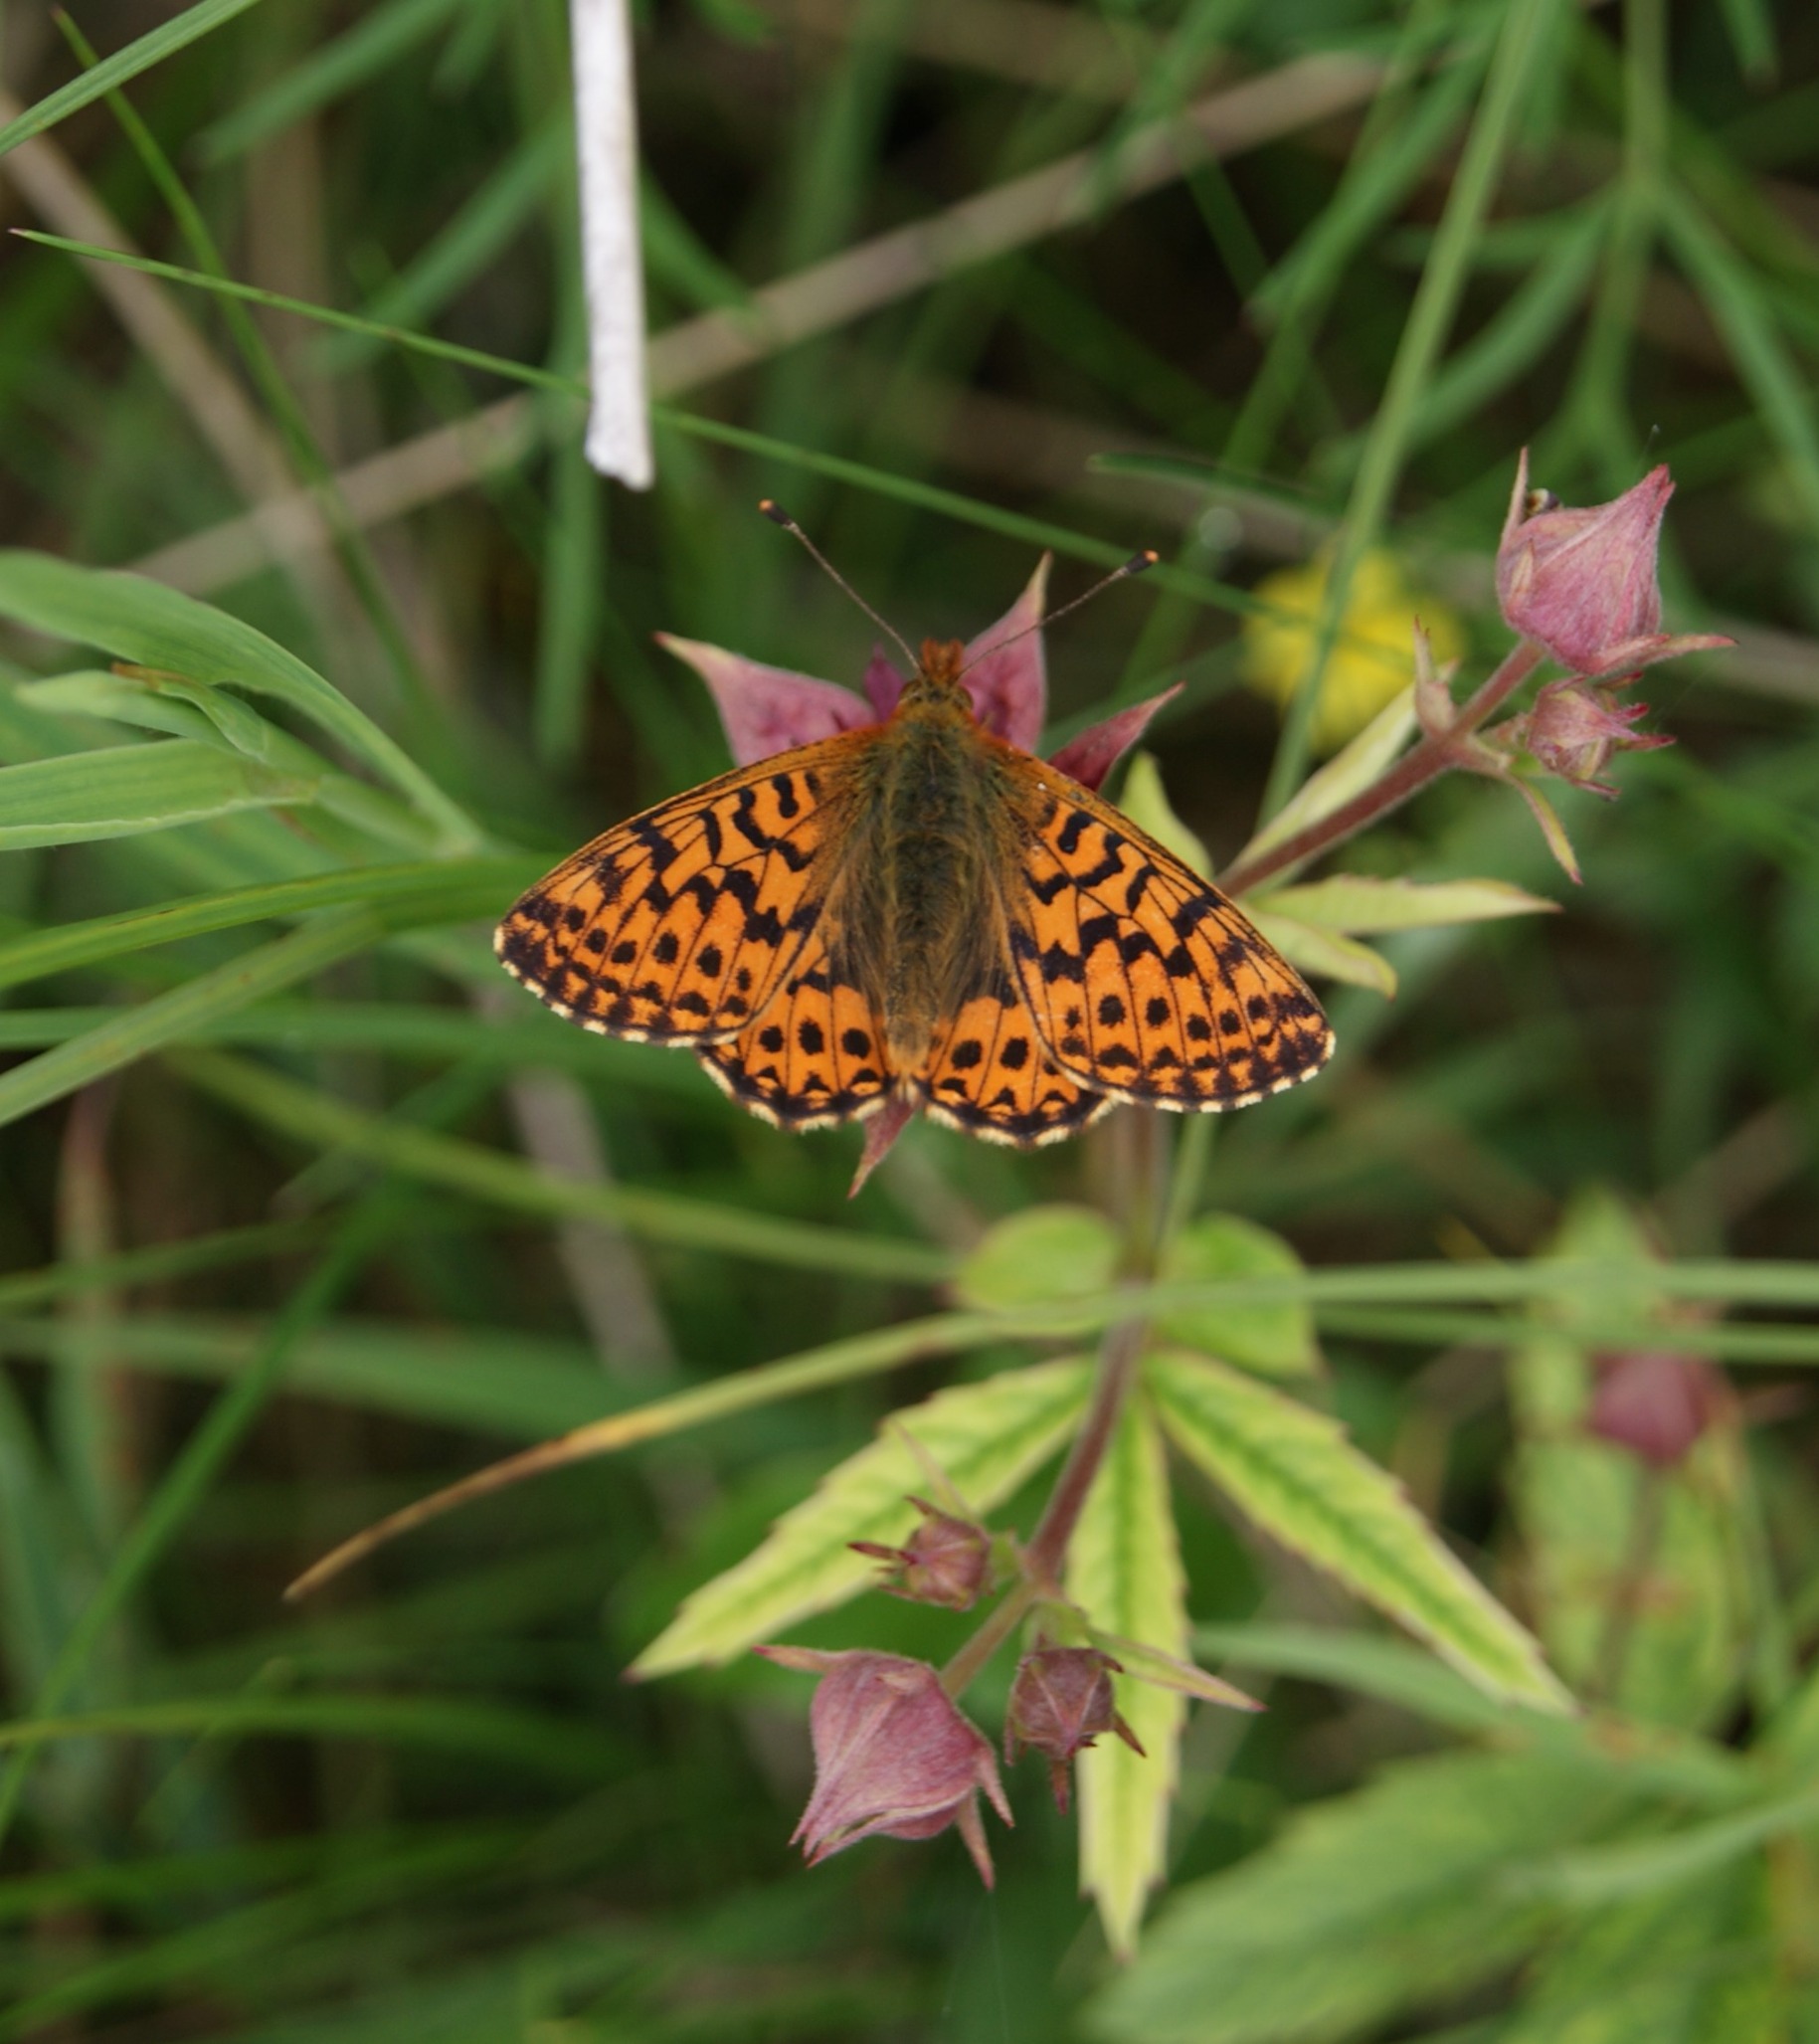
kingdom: Animalia
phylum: Arthropoda
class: Insecta
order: Lepidoptera
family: Nymphalidae
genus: Boloria
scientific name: Boloria aquilonaris
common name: Moseperlemorsommerfugl
